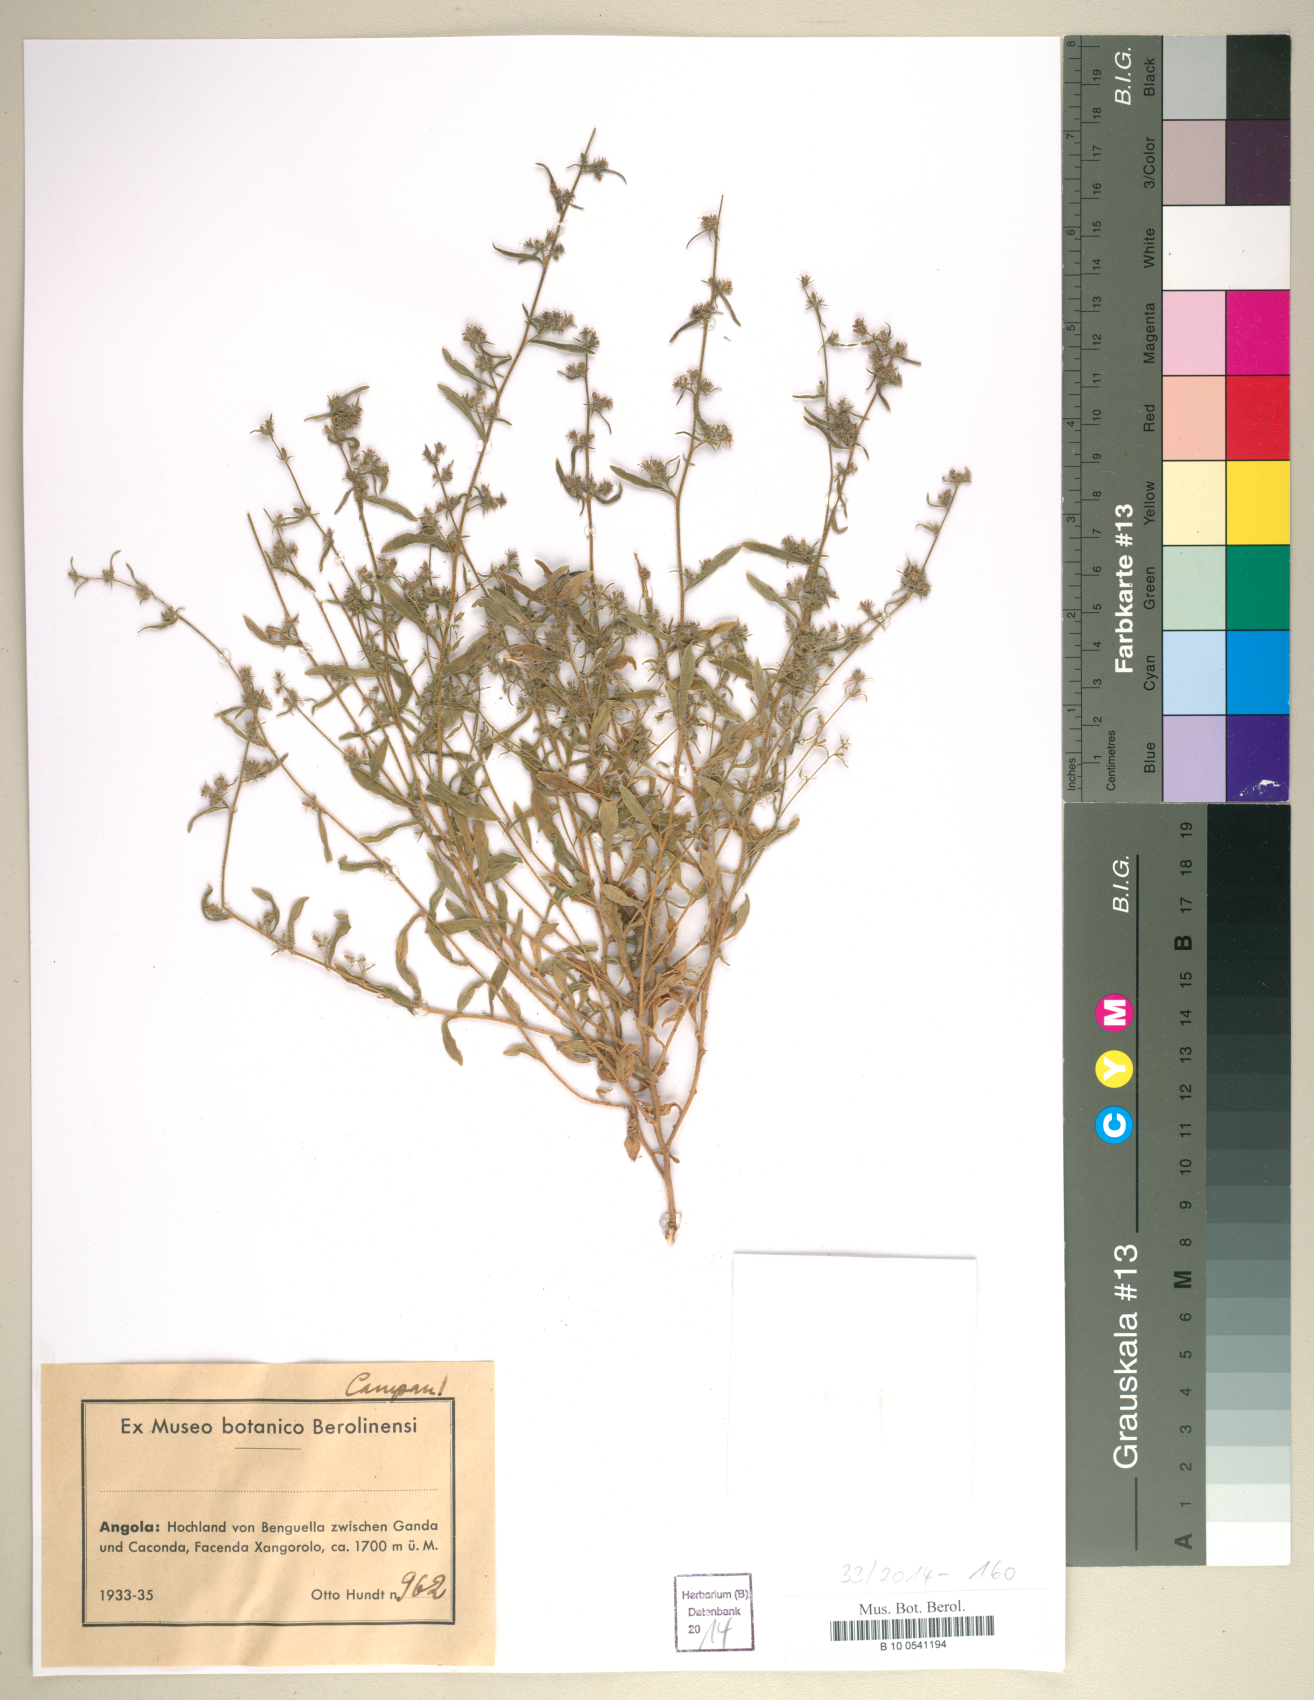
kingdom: Plantae
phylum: Tracheophyta
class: Magnoliopsida
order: Asterales
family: Campanulaceae
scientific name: Campanulaceae
